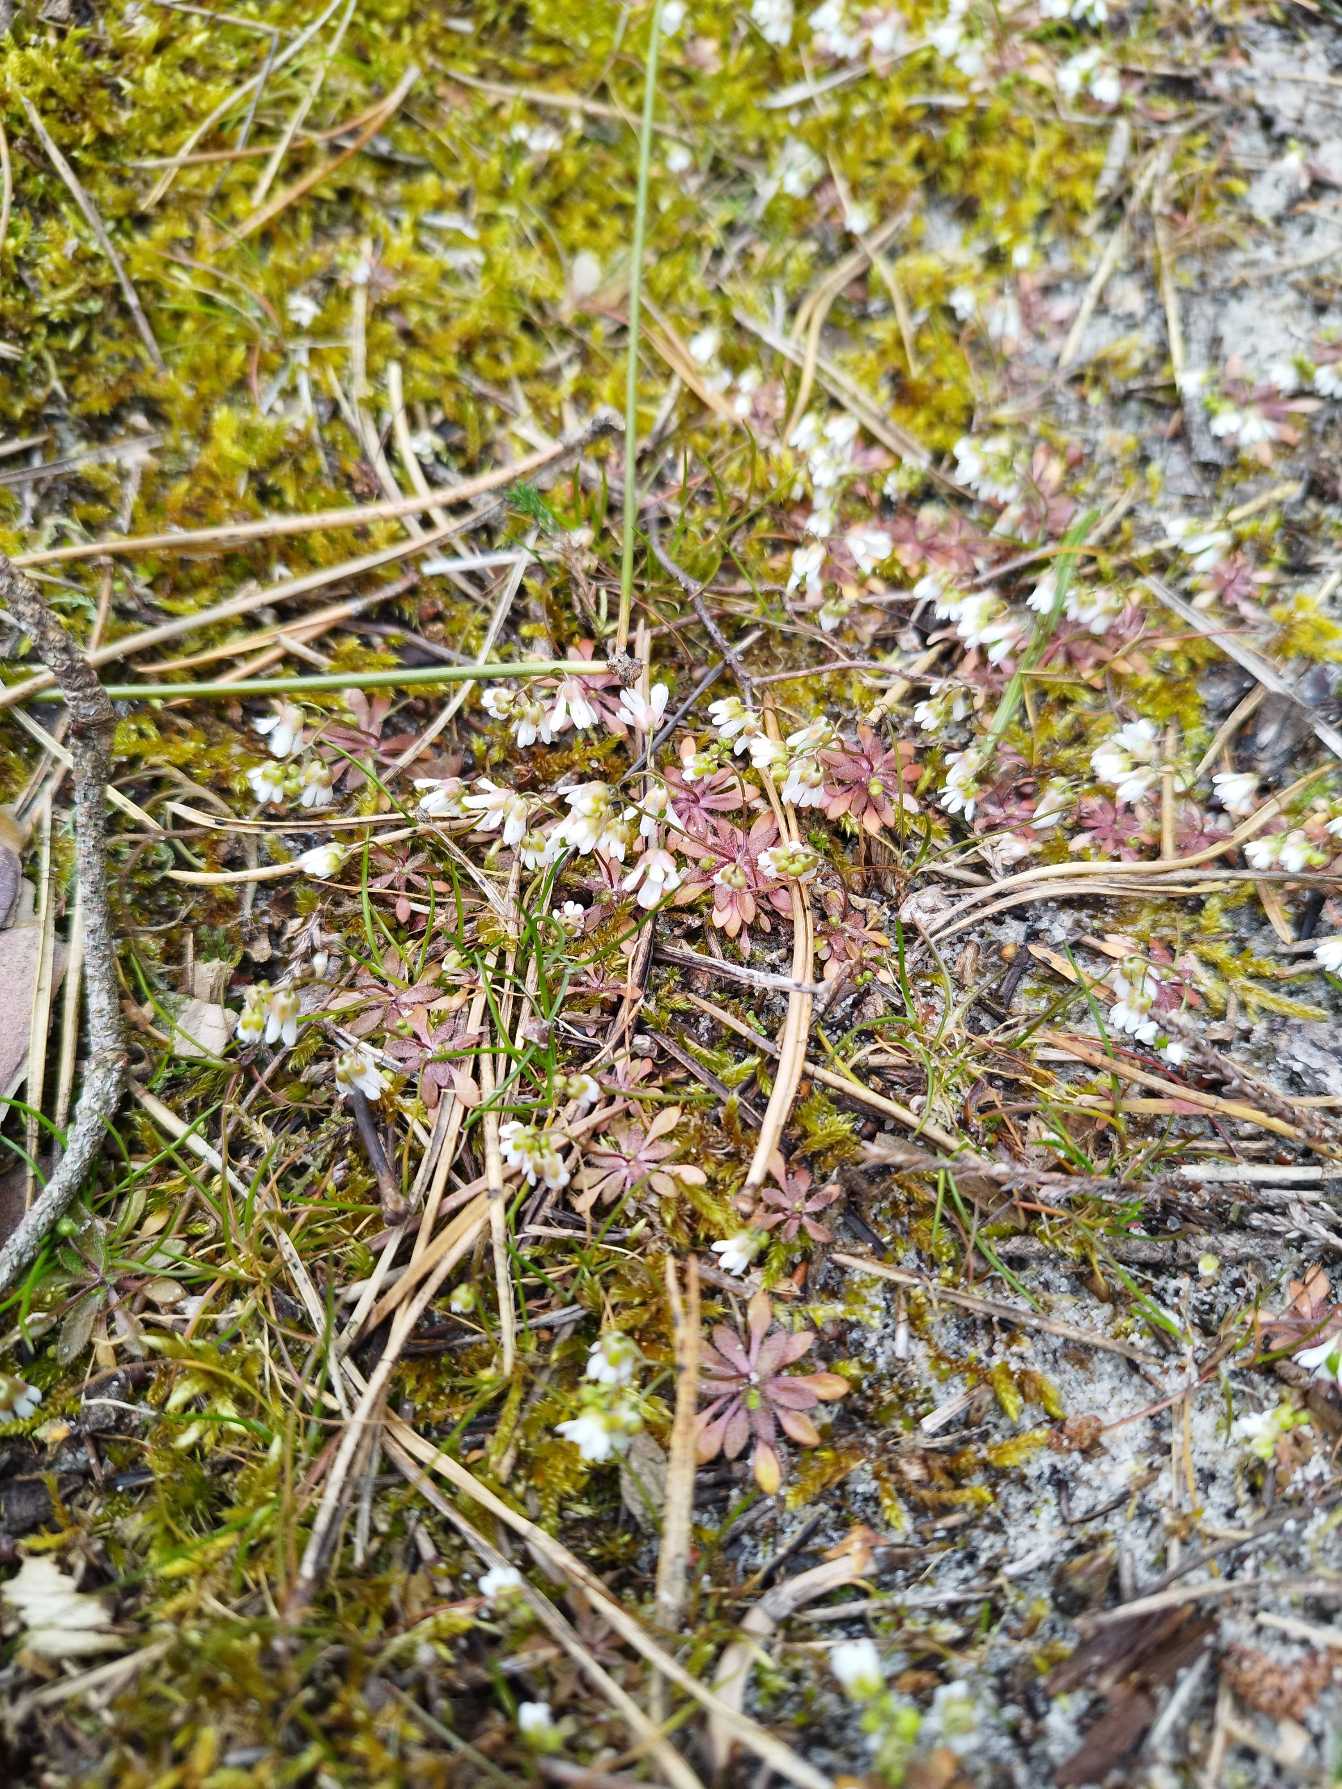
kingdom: Plantae
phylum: Tracheophyta
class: Magnoliopsida
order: Brassicales
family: Brassicaceae
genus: Draba
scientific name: Draba verna
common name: Vår-gæslingeblomst
